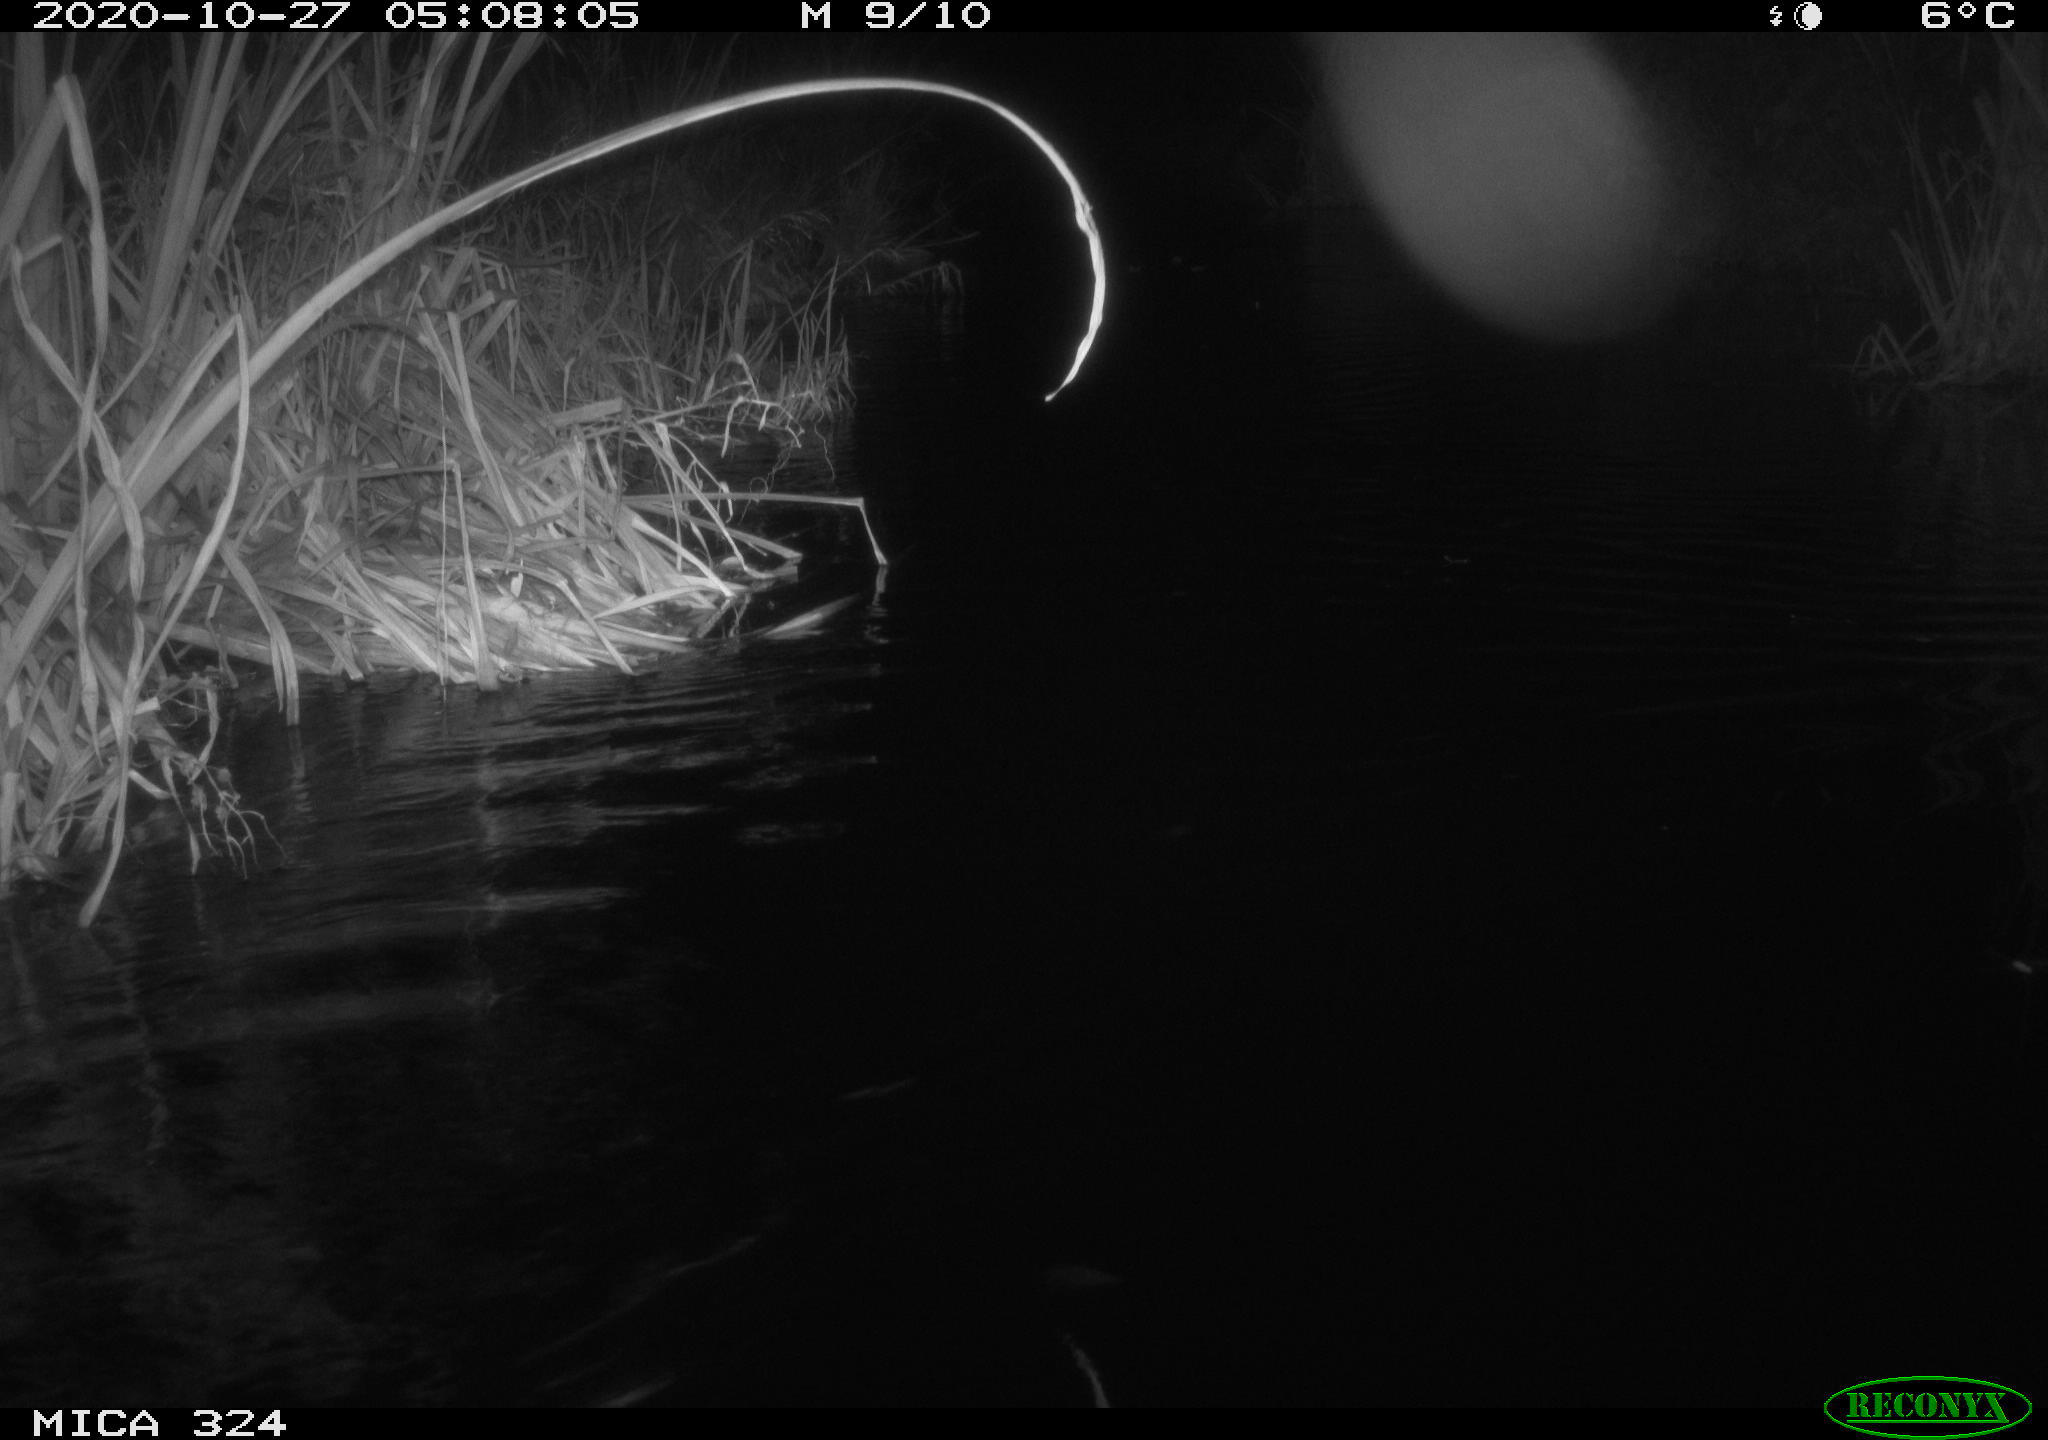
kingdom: Animalia
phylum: Chordata
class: Mammalia
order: Rodentia
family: Cricetidae
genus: Ondatra
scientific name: Ondatra zibethicus
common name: Muskrat
